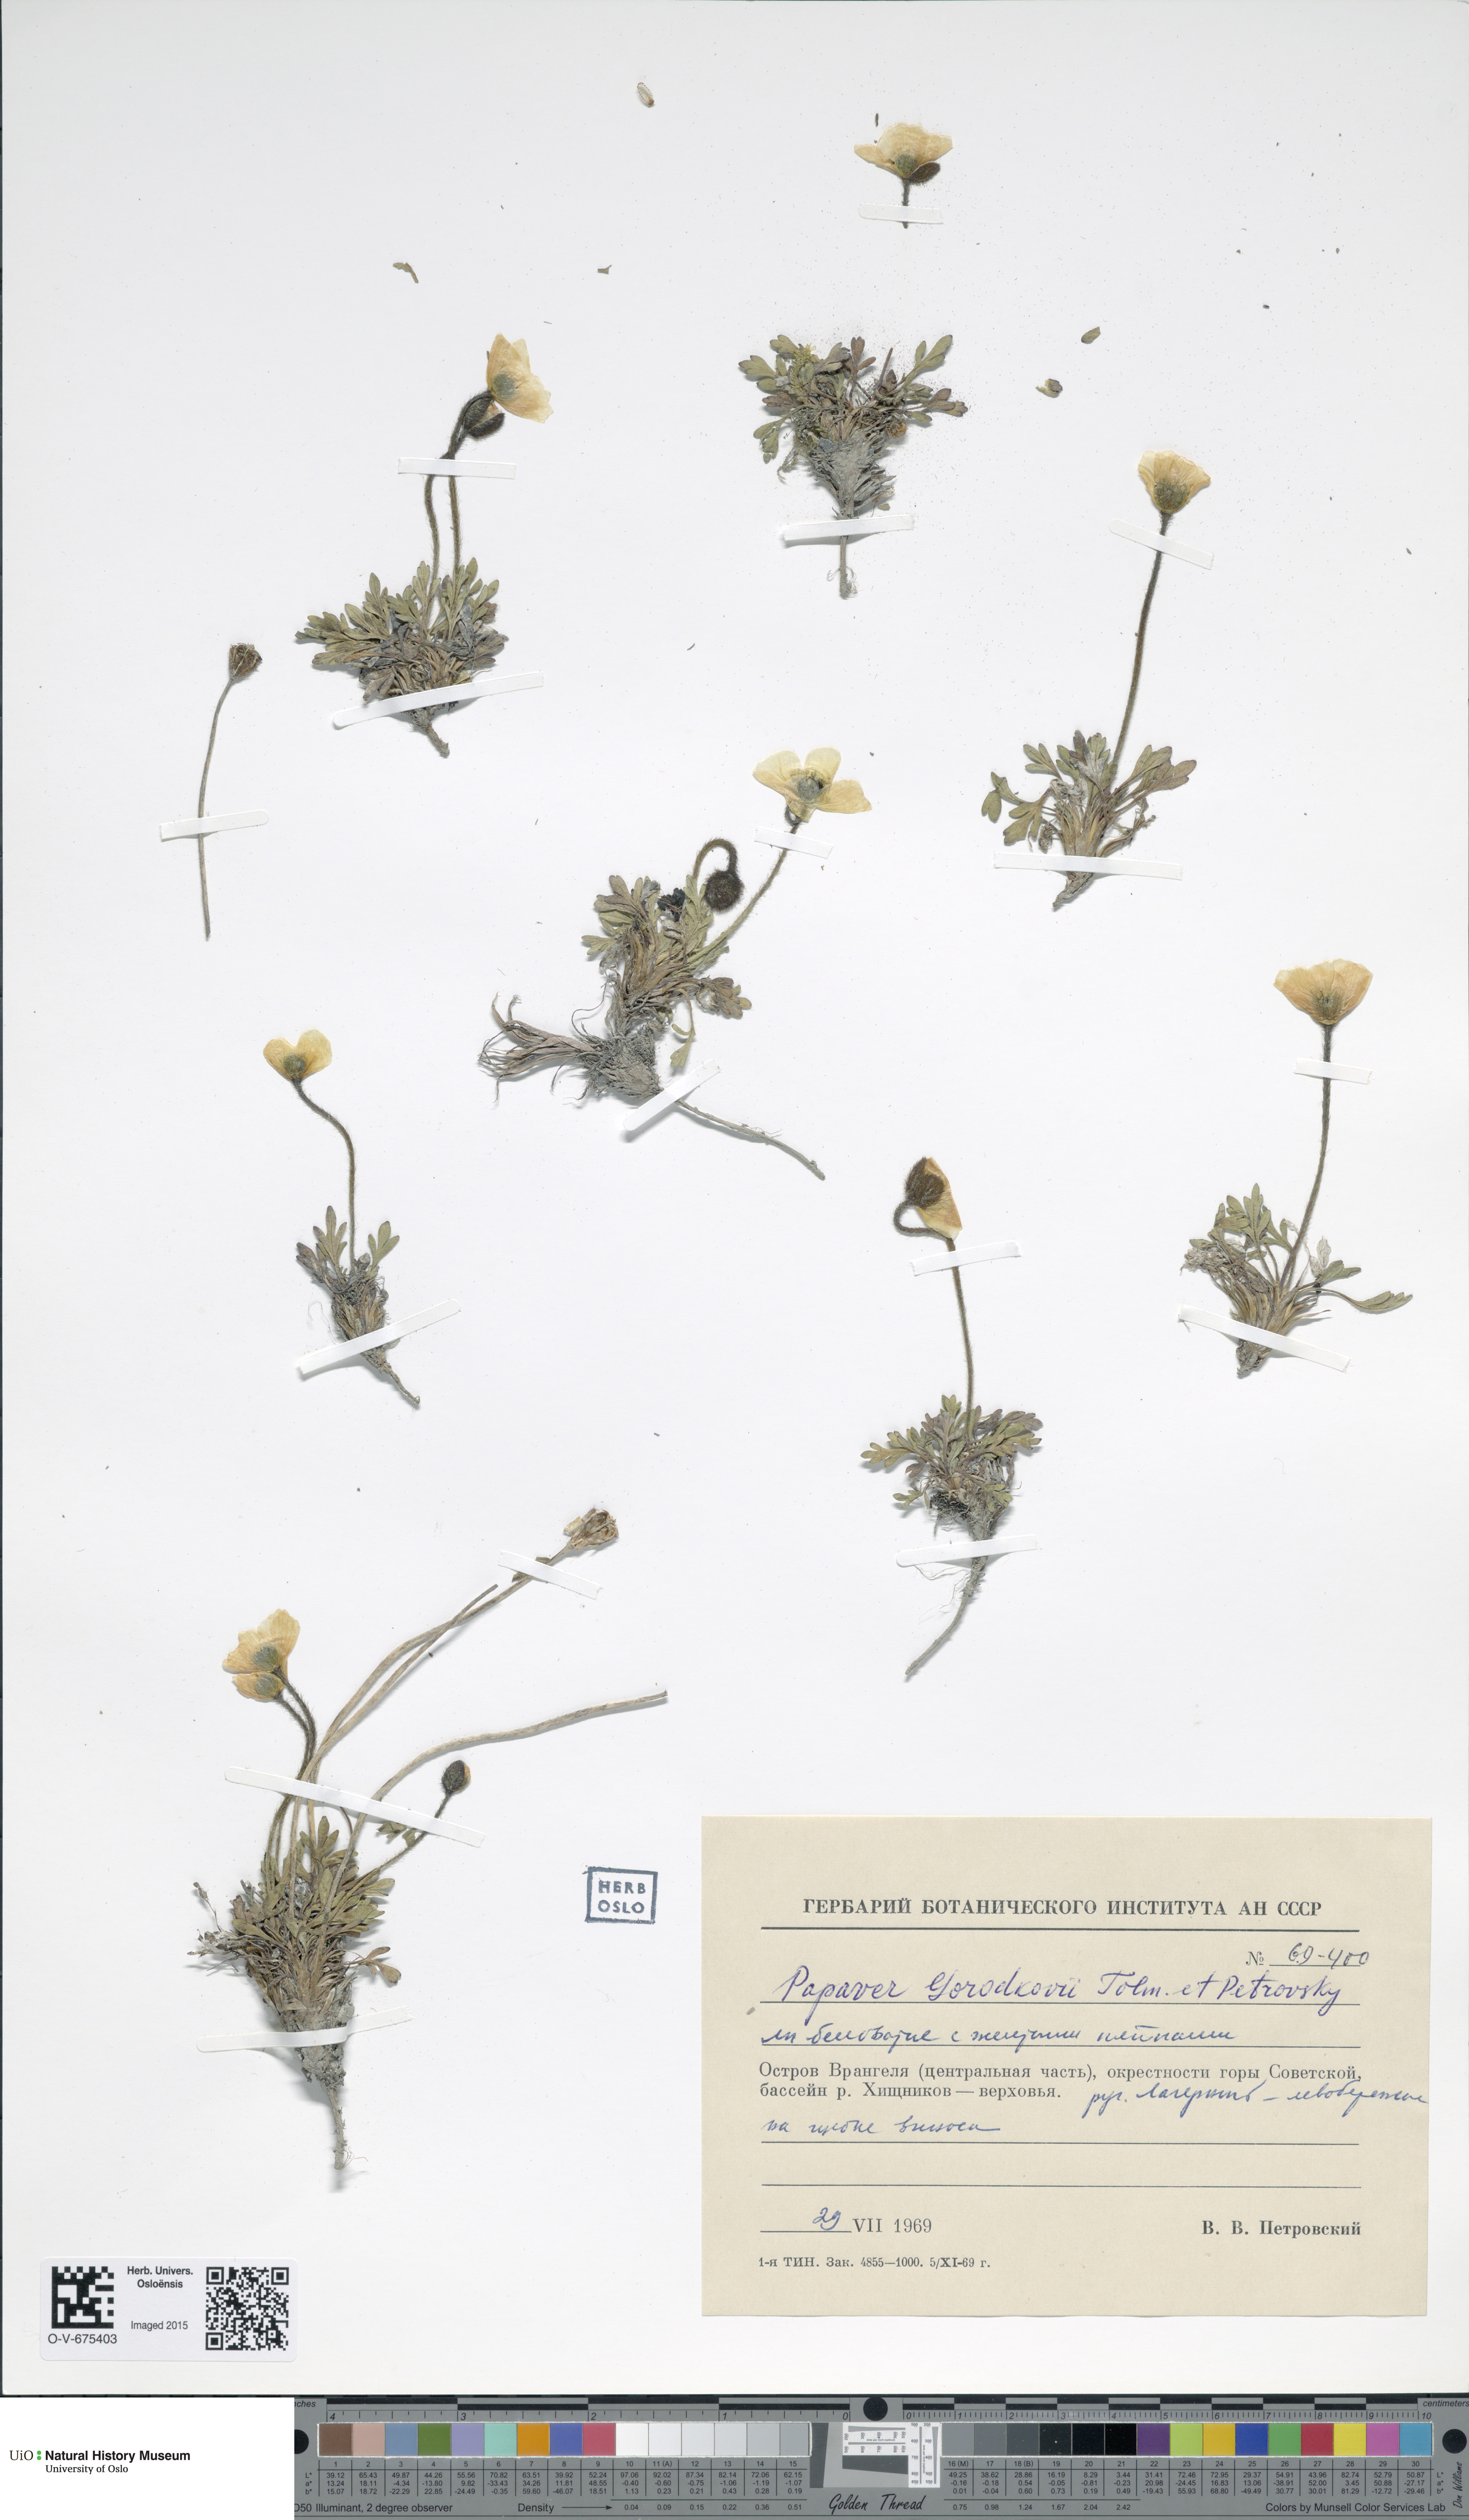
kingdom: Plantae
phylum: Tracheophyta
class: Magnoliopsida
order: Ranunculales
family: Papaveraceae
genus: Papaver
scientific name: Papaver gorodkovii
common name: Gorodkov's poppy
